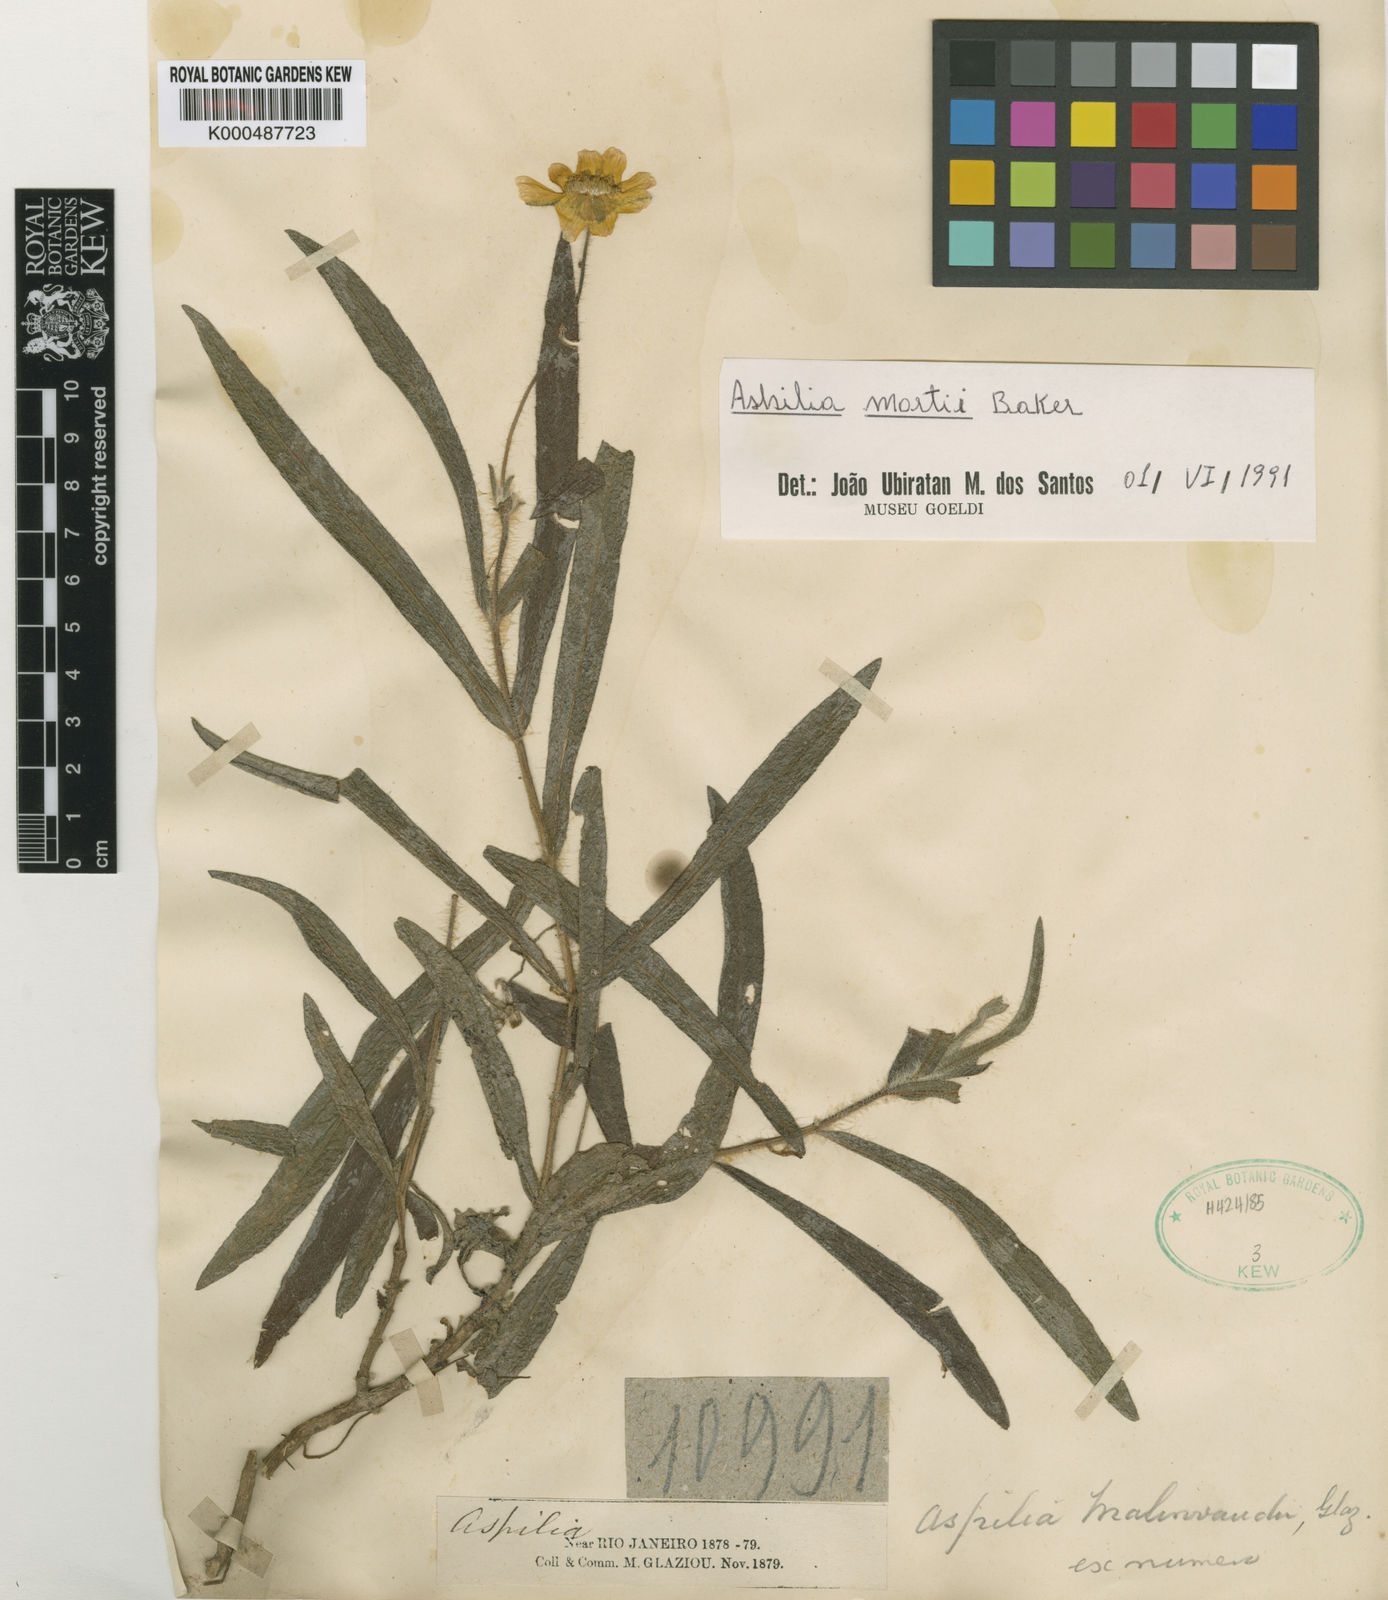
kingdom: Plantae
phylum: Tracheophyta
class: Magnoliopsida
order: Asterales
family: Asteraceae
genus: Aspilia
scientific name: Aspilia malinvaudii
